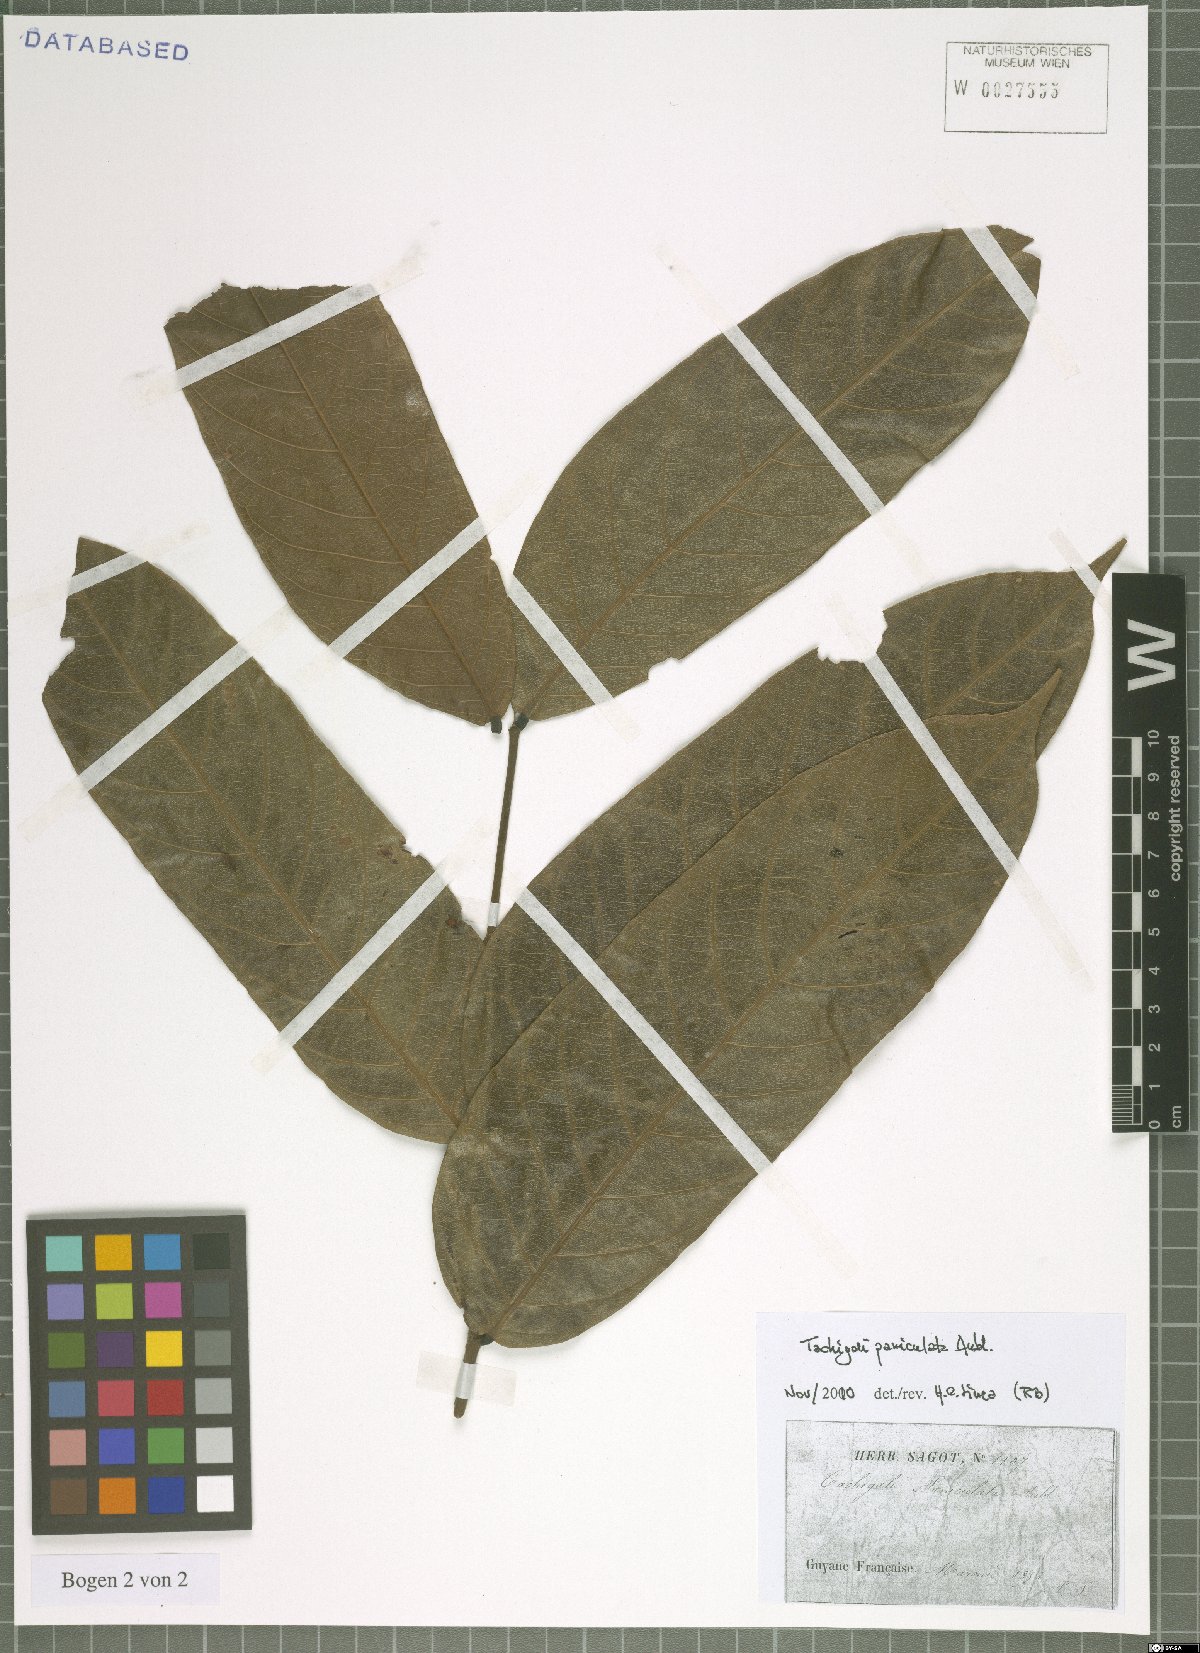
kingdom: Plantae
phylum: Tracheophyta
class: Magnoliopsida
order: Fabales
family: Fabaceae
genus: Tachigali
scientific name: Tachigali paniculata
